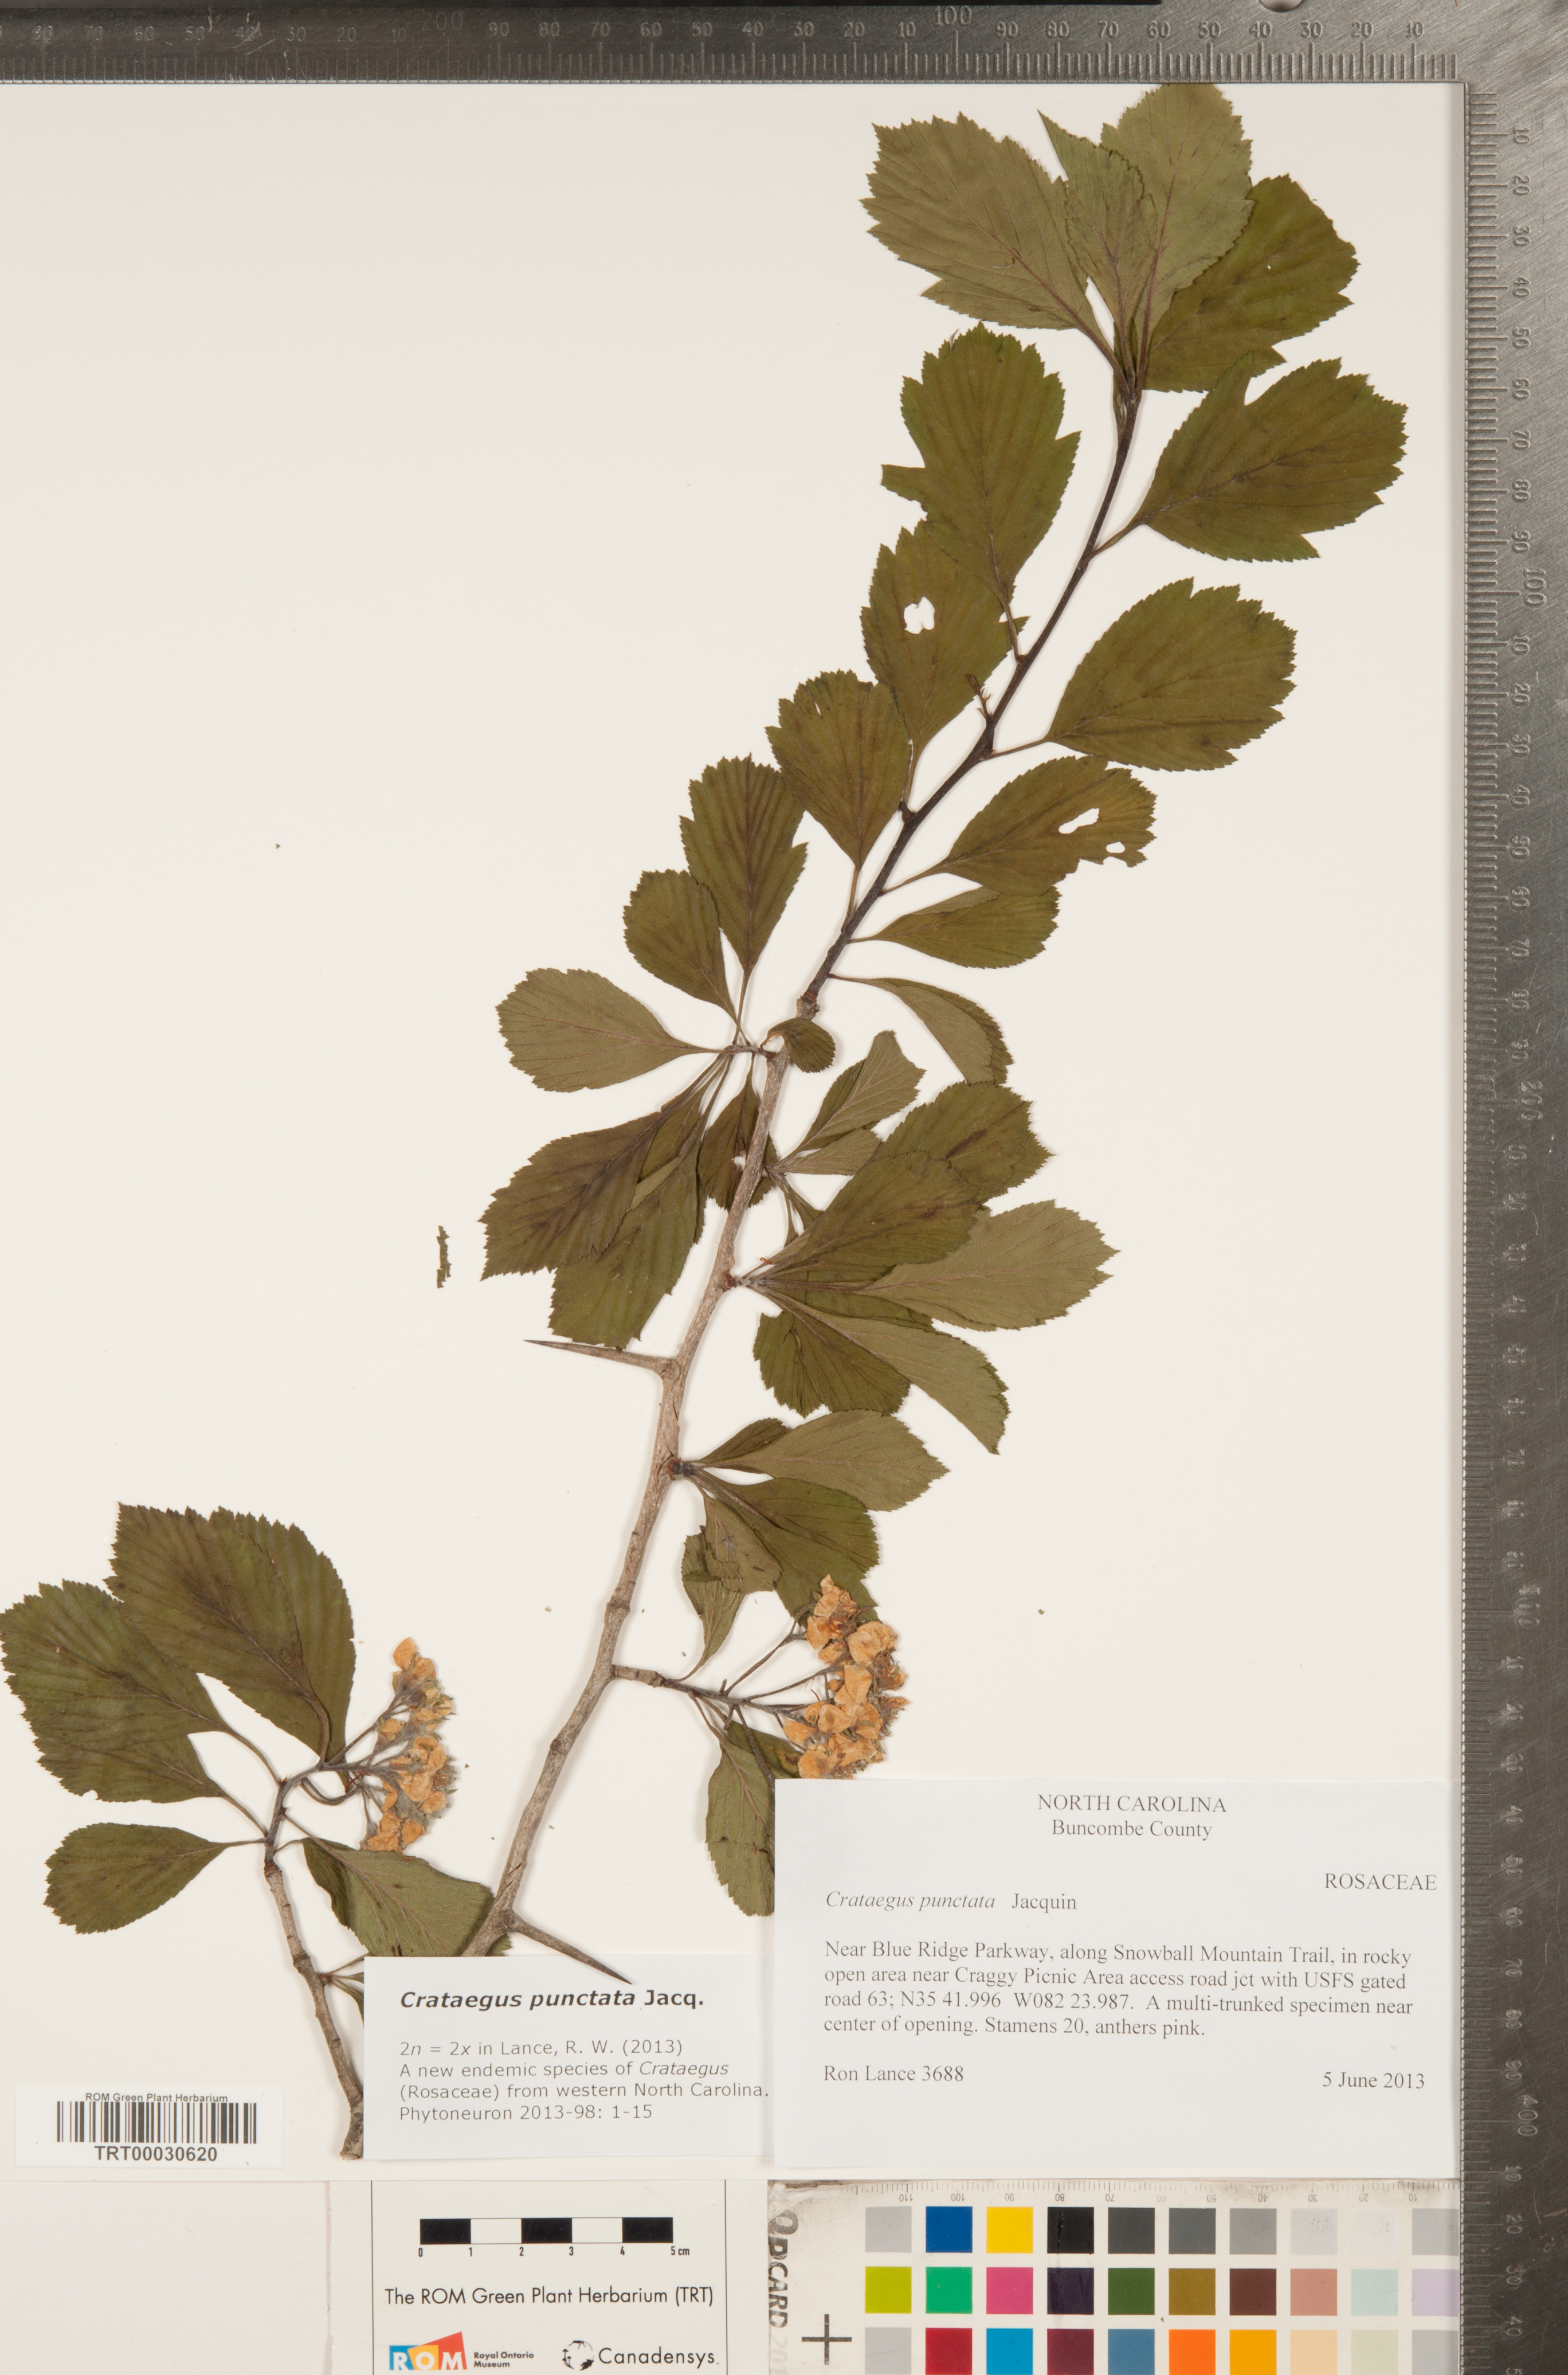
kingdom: Plantae
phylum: Tracheophyta
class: Magnoliopsida
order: Rosales
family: Rosaceae
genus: Crataegus
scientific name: Crataegus punctata
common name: Dotted hawthorn
